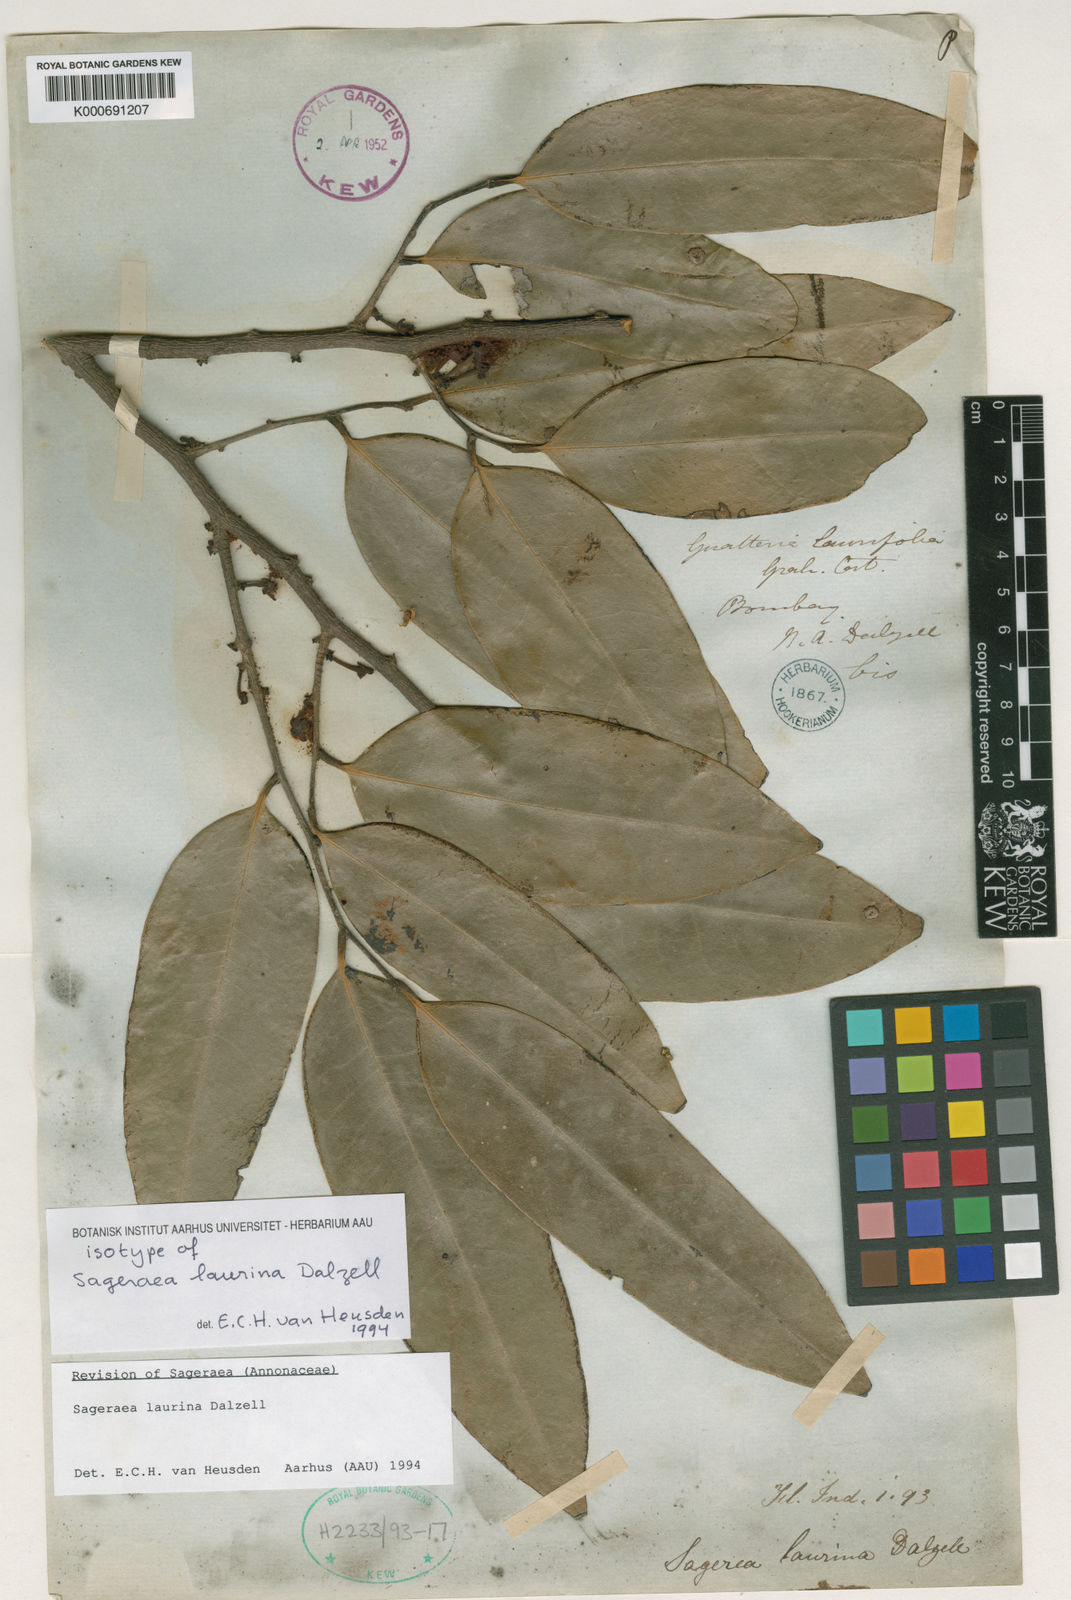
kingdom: Plantae
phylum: Tracheophyta
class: Magnoliopsida
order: Magnoliales
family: Annonaceae
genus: Sageraea
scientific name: Sageraea laurina
